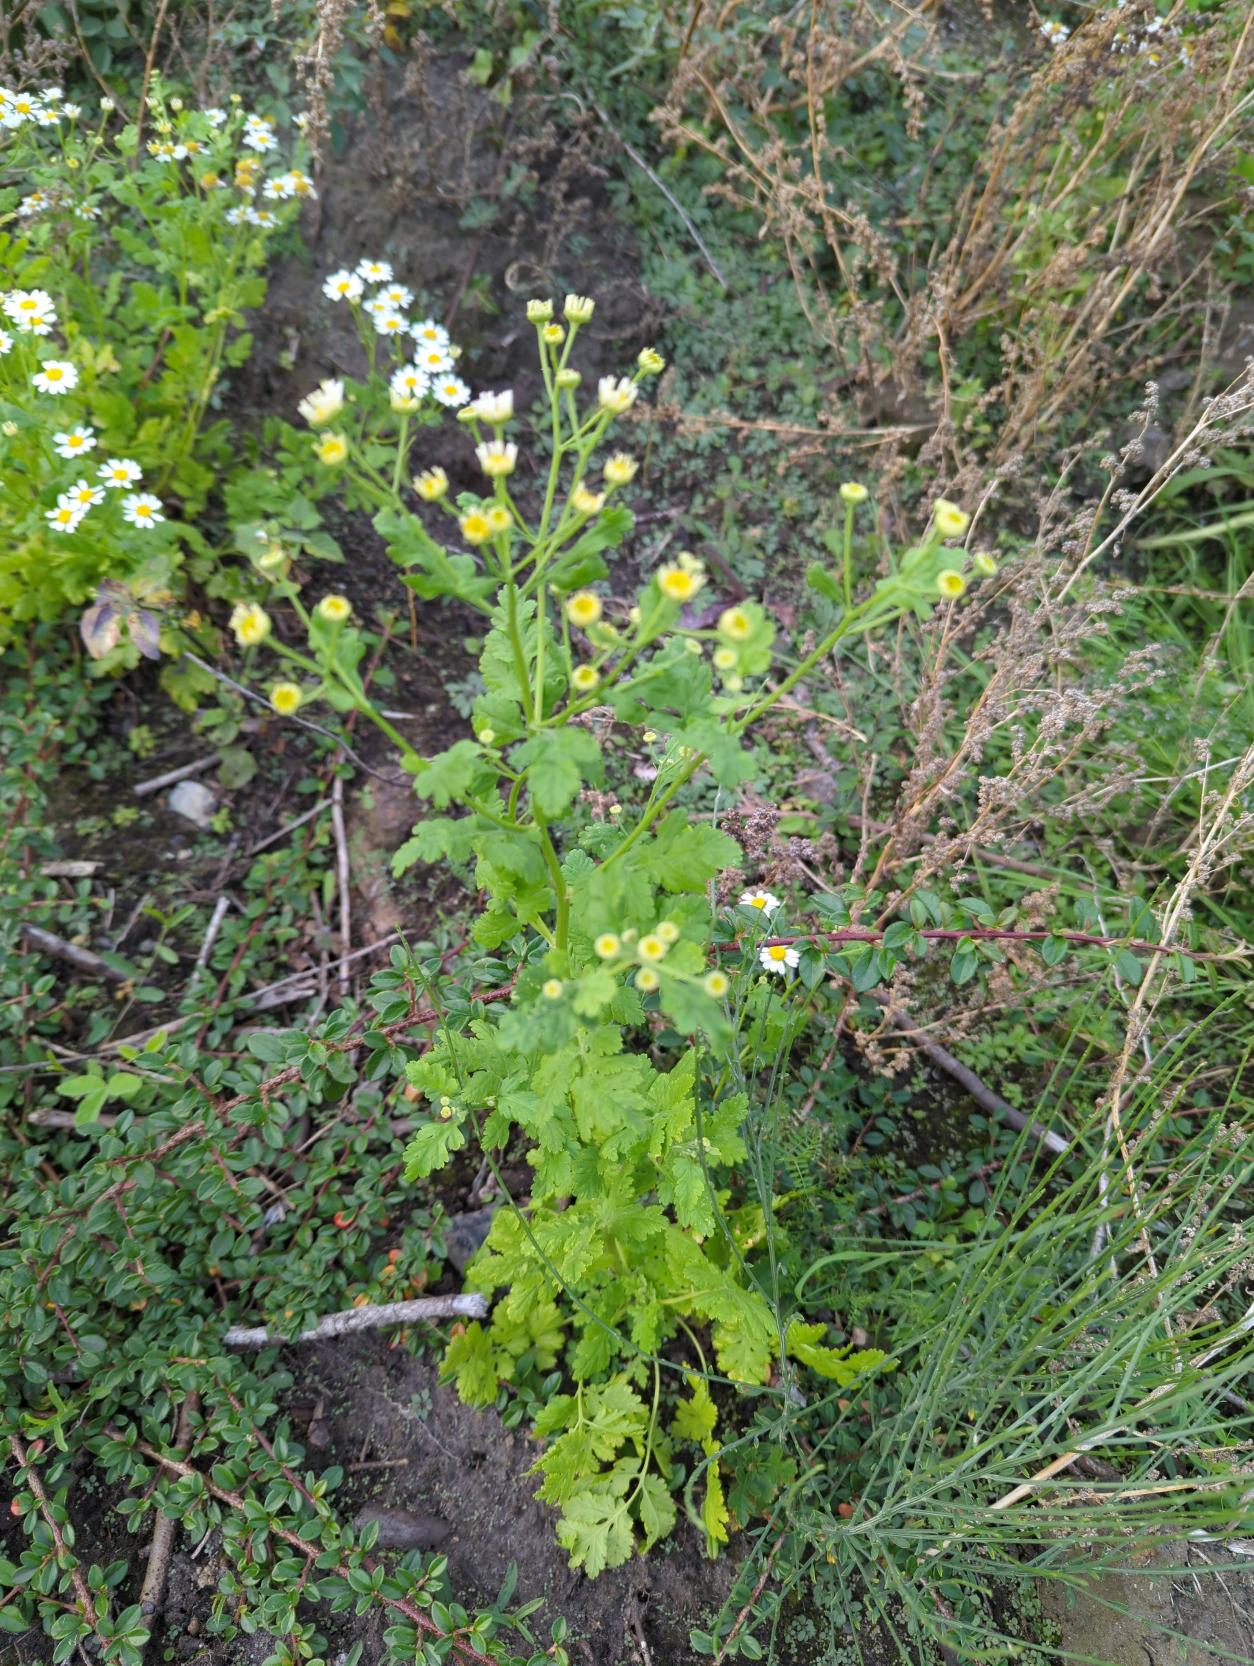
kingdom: Plantae
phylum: Tracheophyta
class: Magnoliopsida
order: Asterales
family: Asteraceae
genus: Tanacetum
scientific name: Tanacetum parthenium
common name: Matrem
